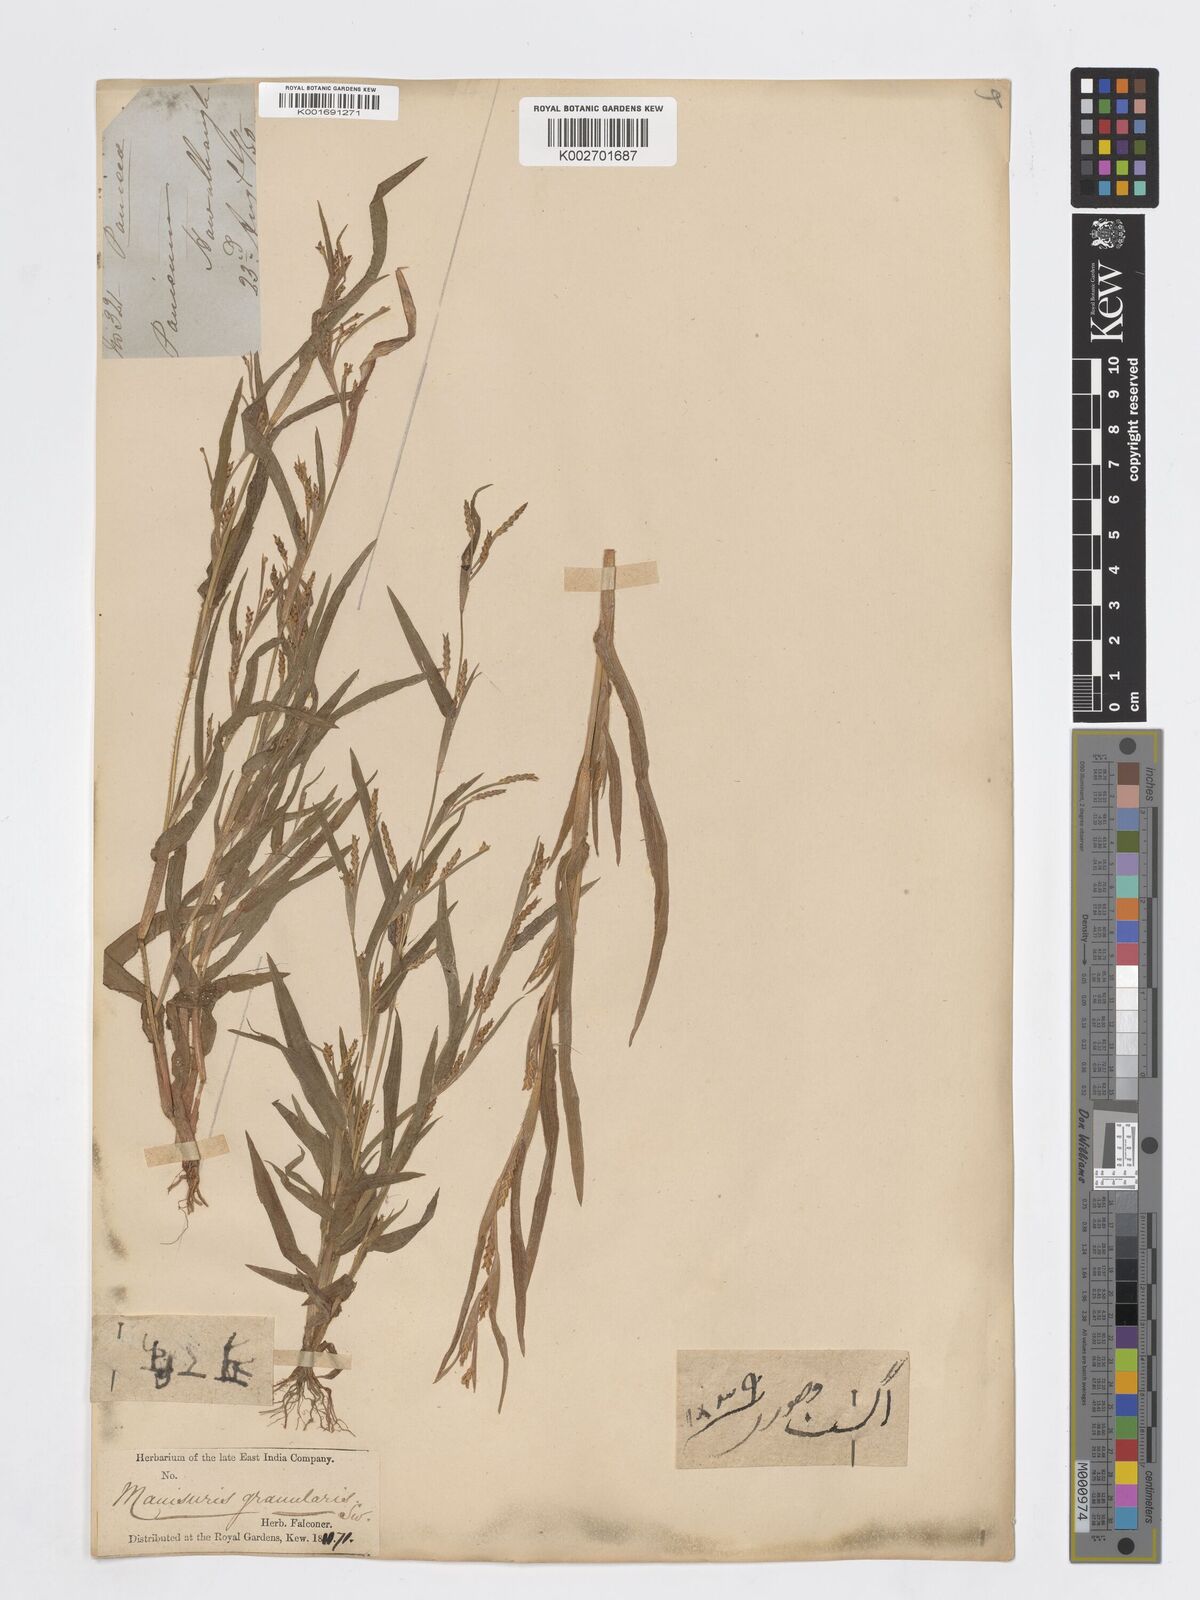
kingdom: Plantae
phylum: Tracheophyta
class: Liliopsida
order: Poales
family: Poaceae
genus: Hackelochloa
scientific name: Hackelochloa granularis
